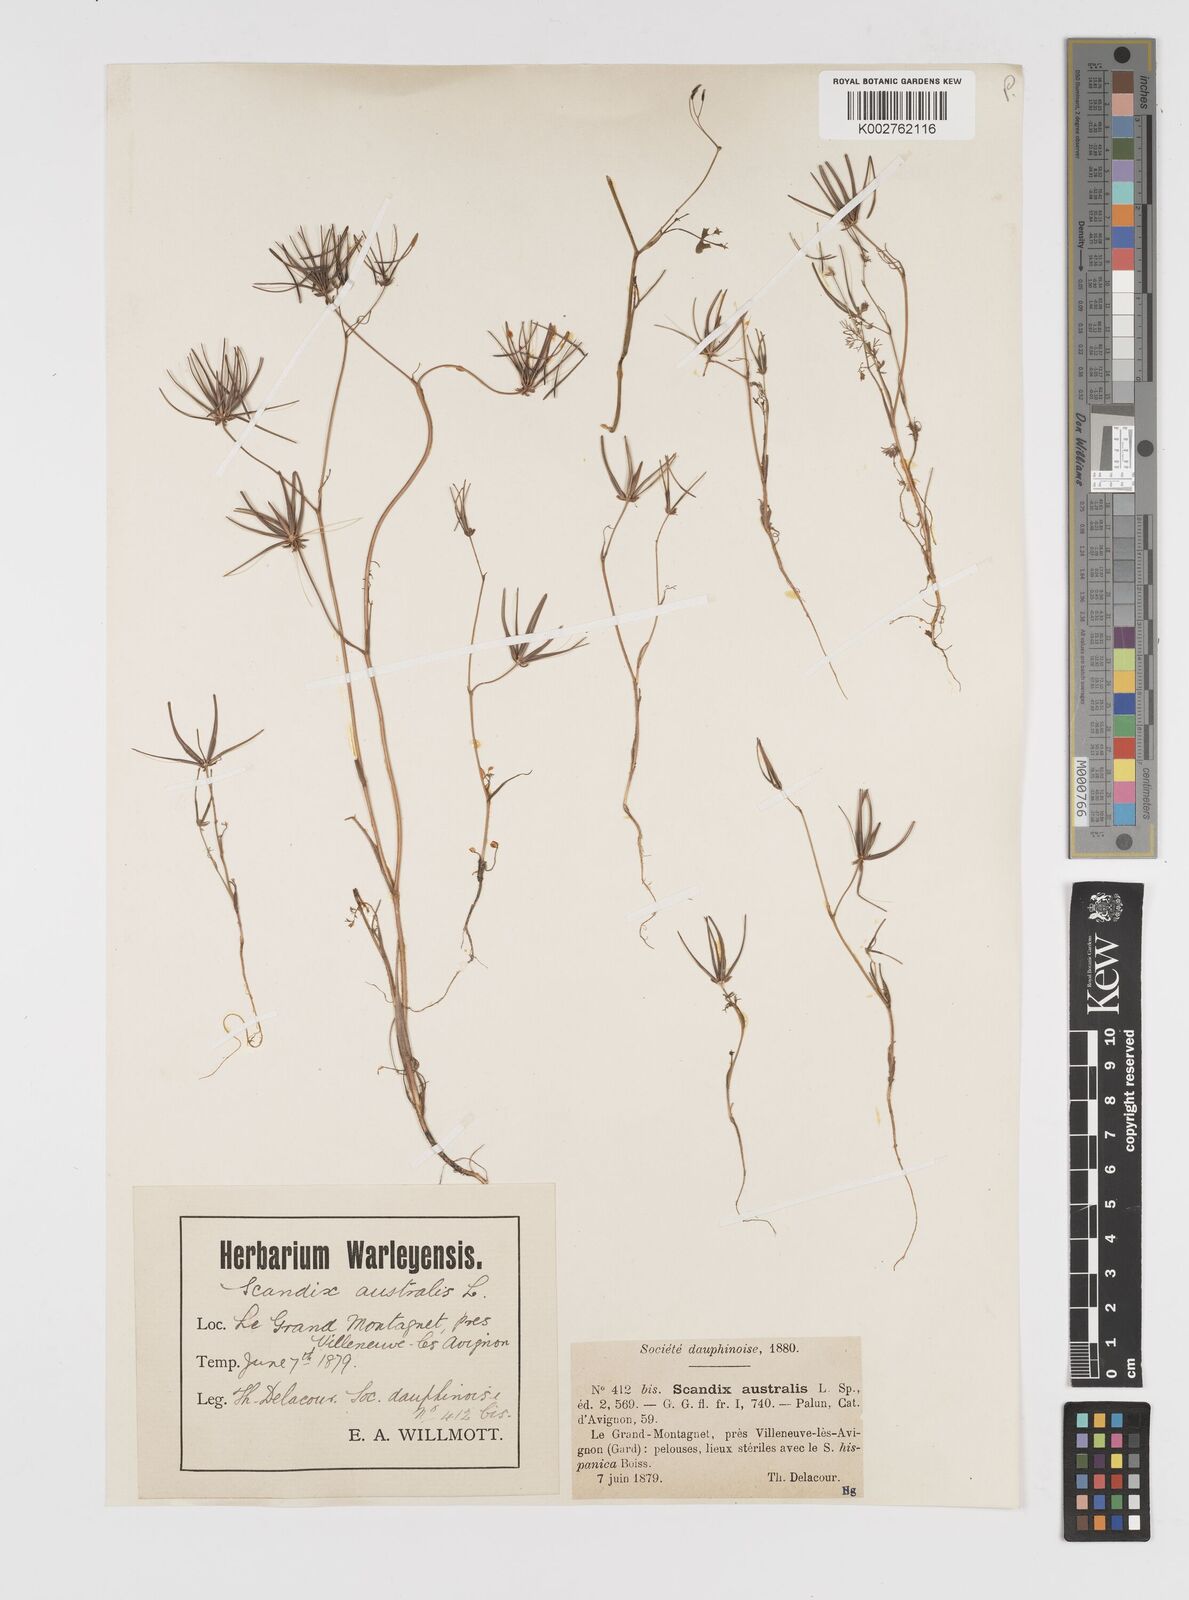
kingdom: Plantae
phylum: Tracheophyta
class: Magnoliopsida
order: Apiales
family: Apiaceae
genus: Scandix
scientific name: Scandix australis
